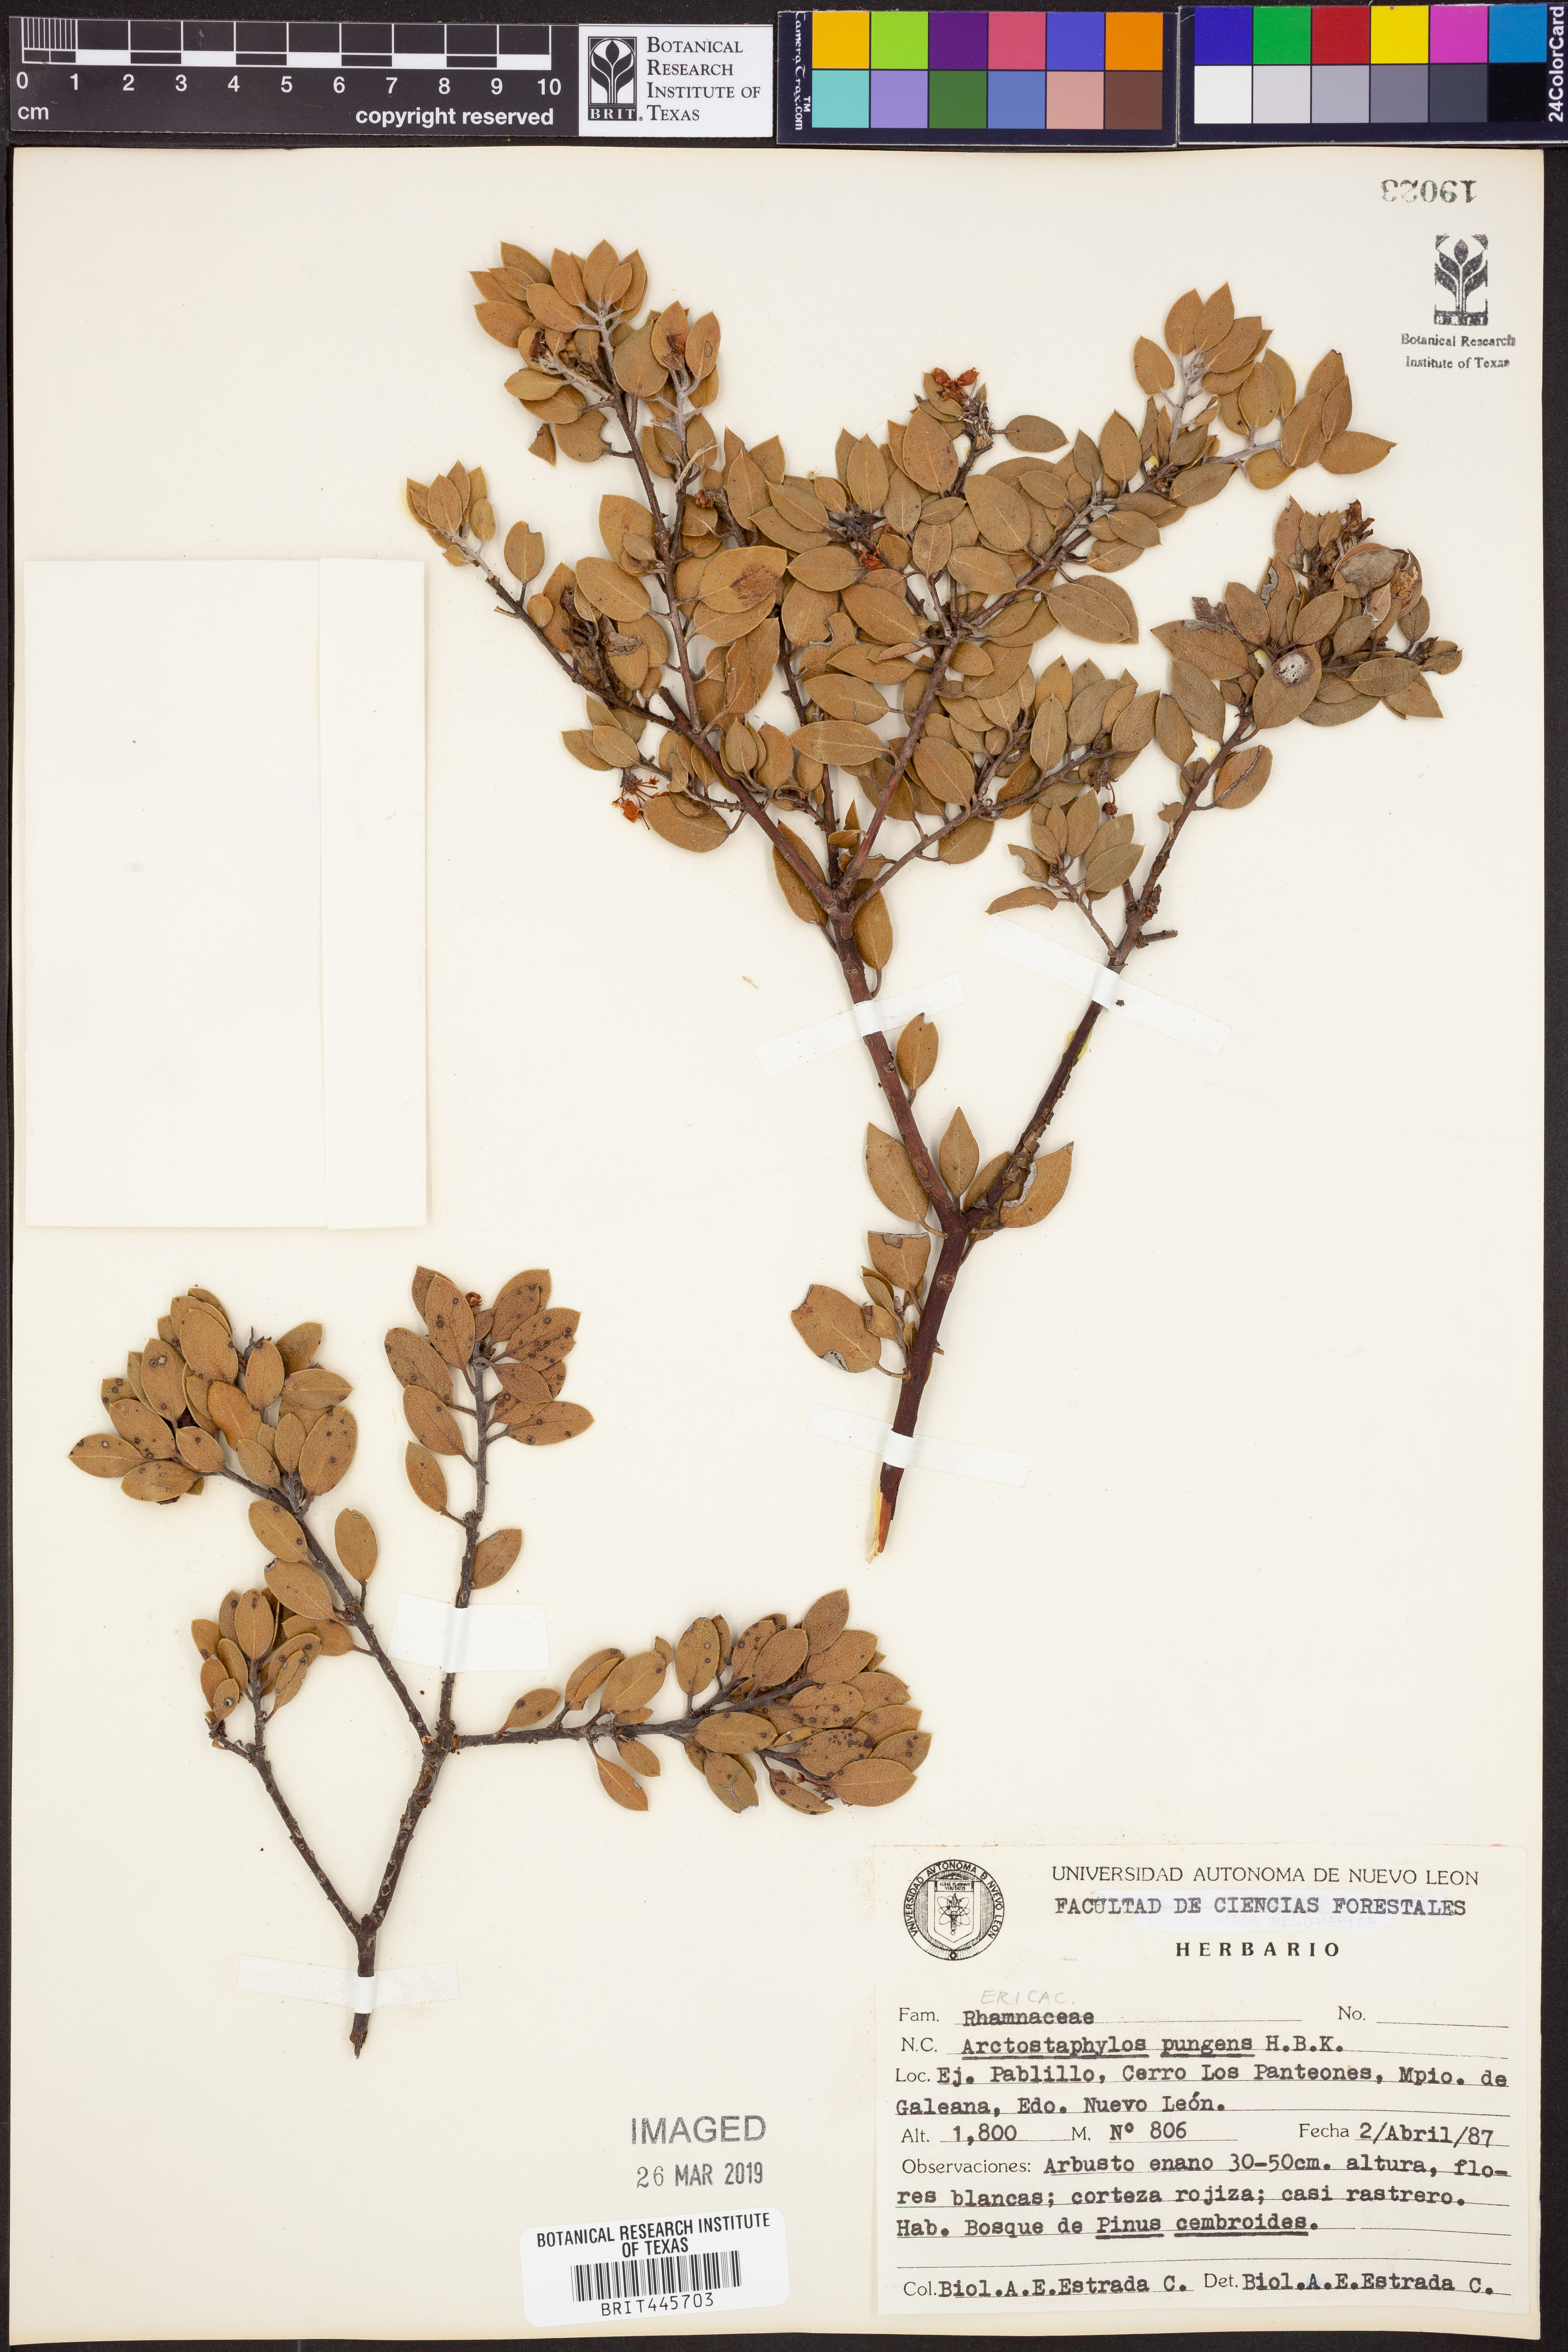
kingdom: Plantae
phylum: Tracheophyta
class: Magnoliopsida
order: Ericales
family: Ericaceae
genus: Arctostaphylos
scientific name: Arctostaphylos pungens
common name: Mexican manzanita
